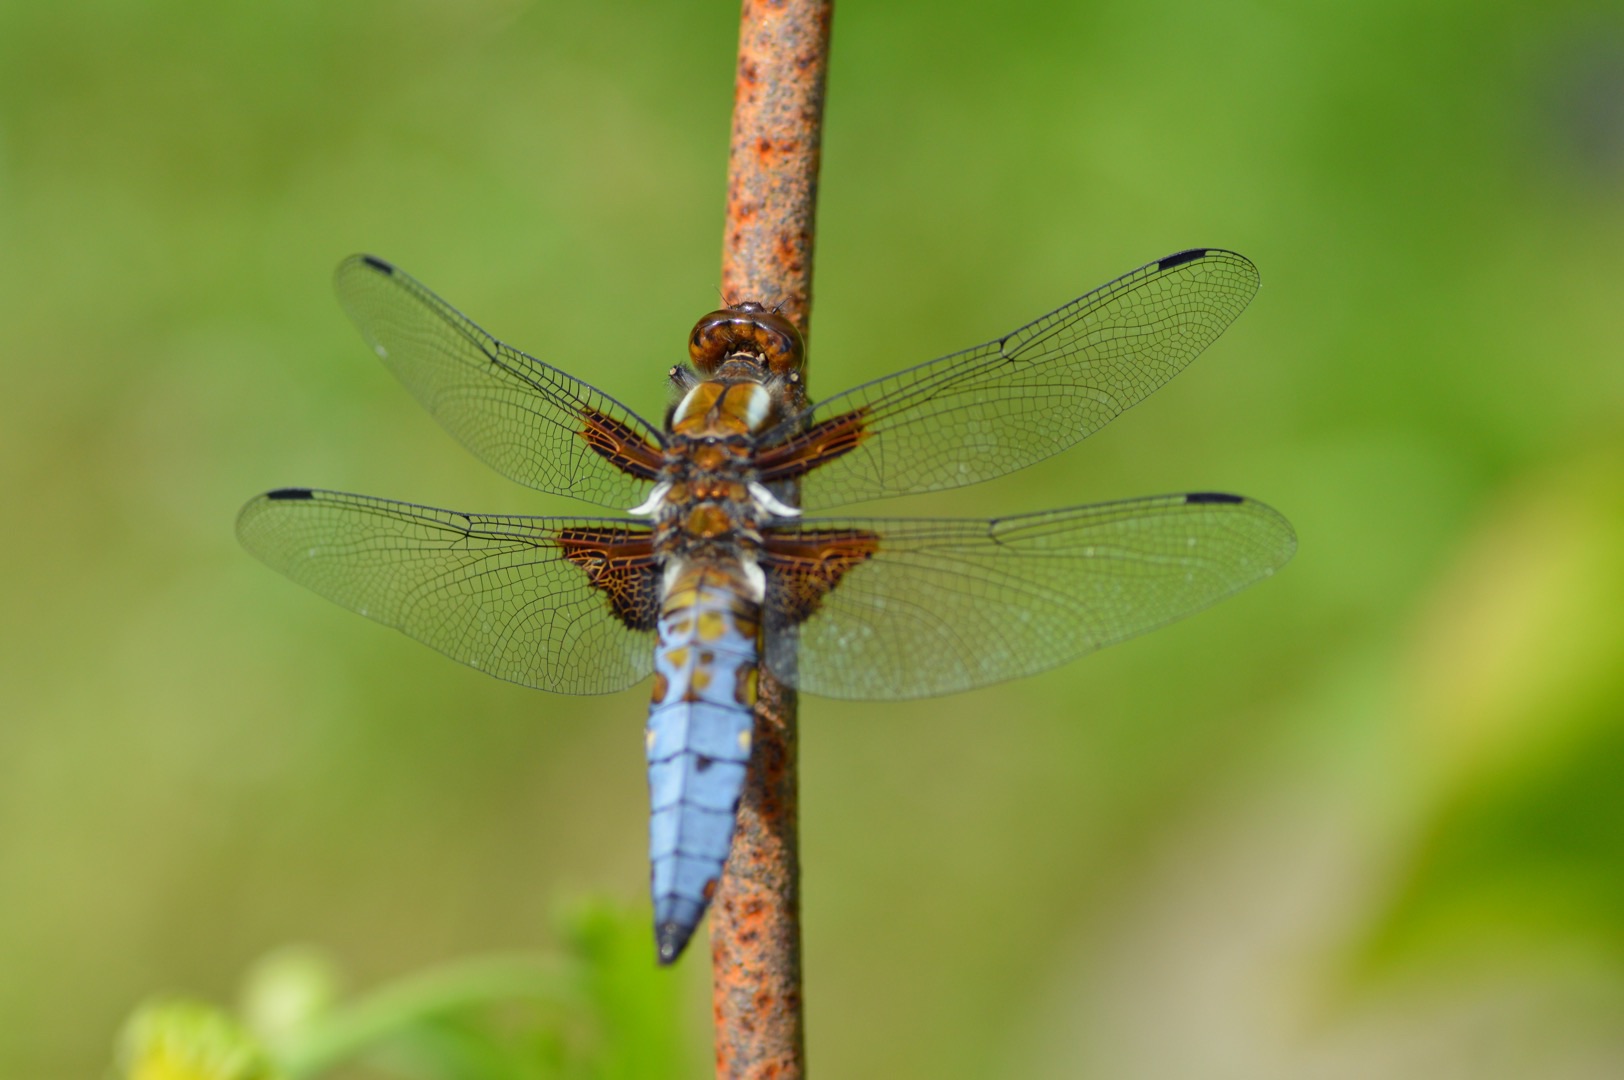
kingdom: Animalia
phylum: Arthropoda
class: Insecta
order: Odonata
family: Libellulidae
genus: Libellula
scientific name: Libellula depressa
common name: Blå libel
